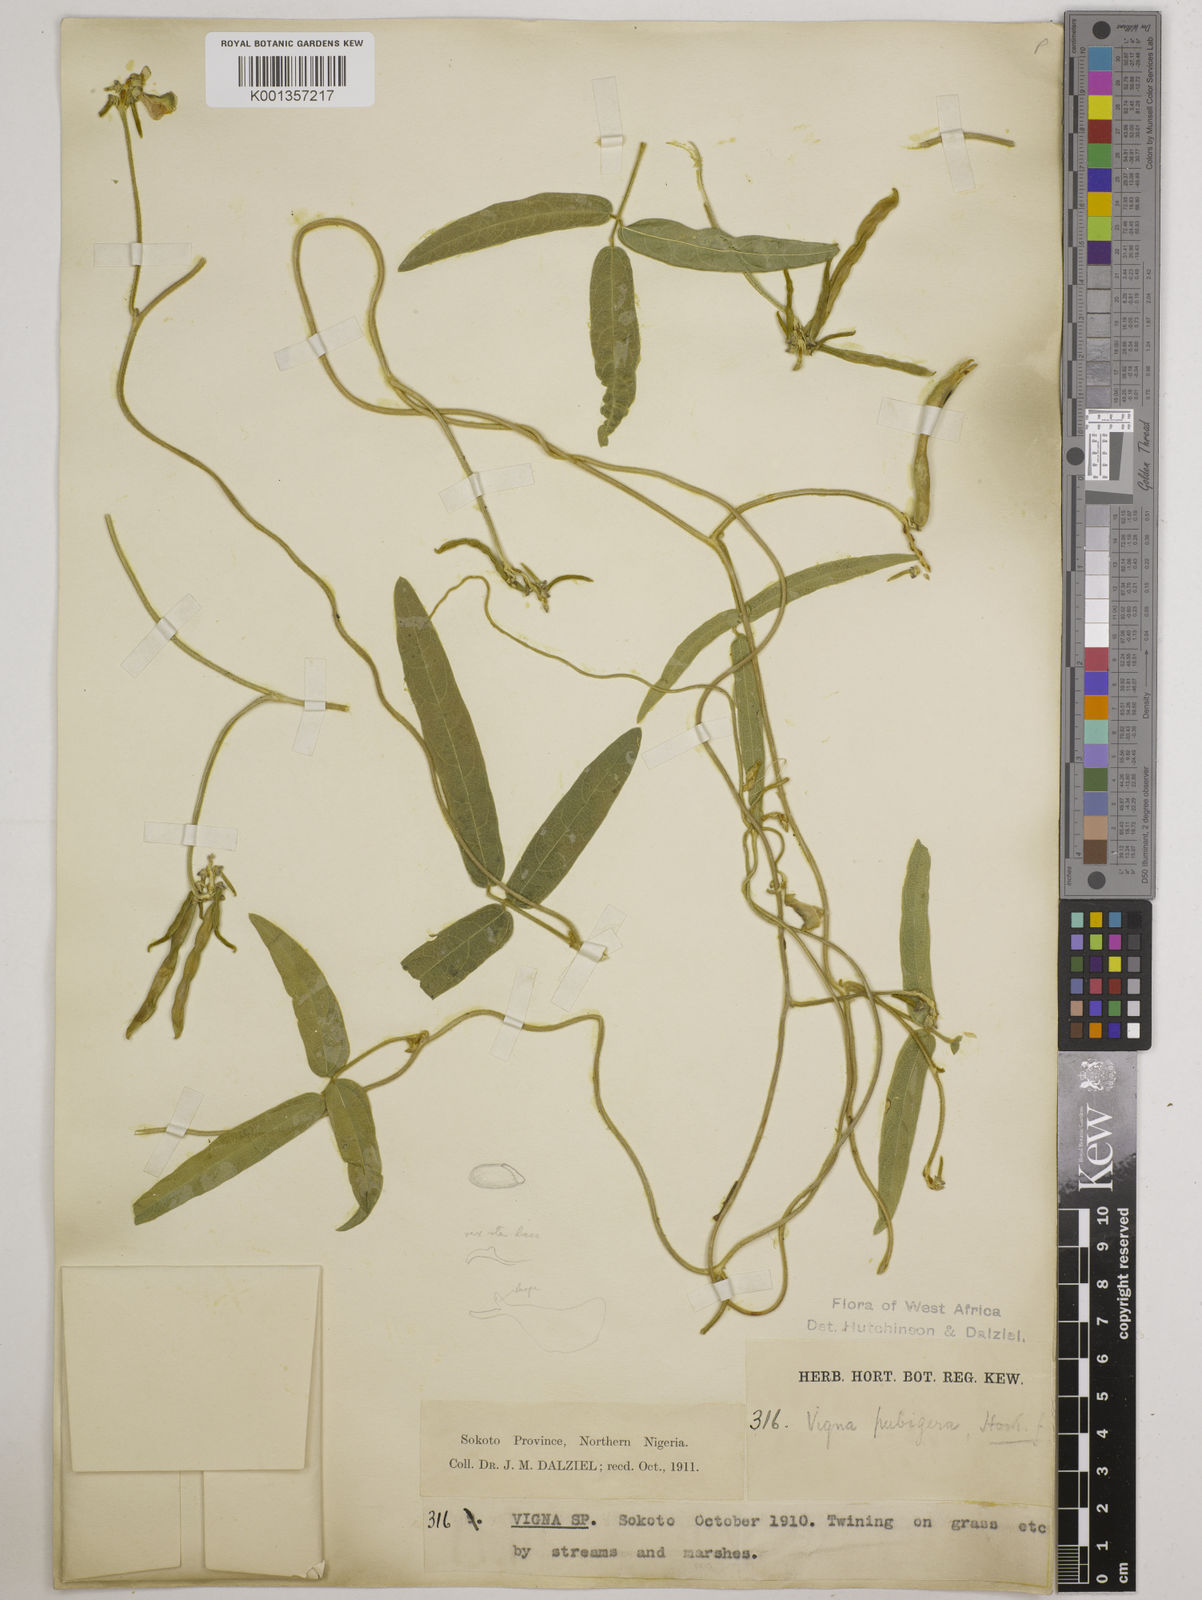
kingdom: Plantae
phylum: Tracheophyta
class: Magnoliopsida
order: Fabales
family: Fabaceae
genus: Vigna
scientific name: Vigna ambacensis
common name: Tsarkiyan zomo
